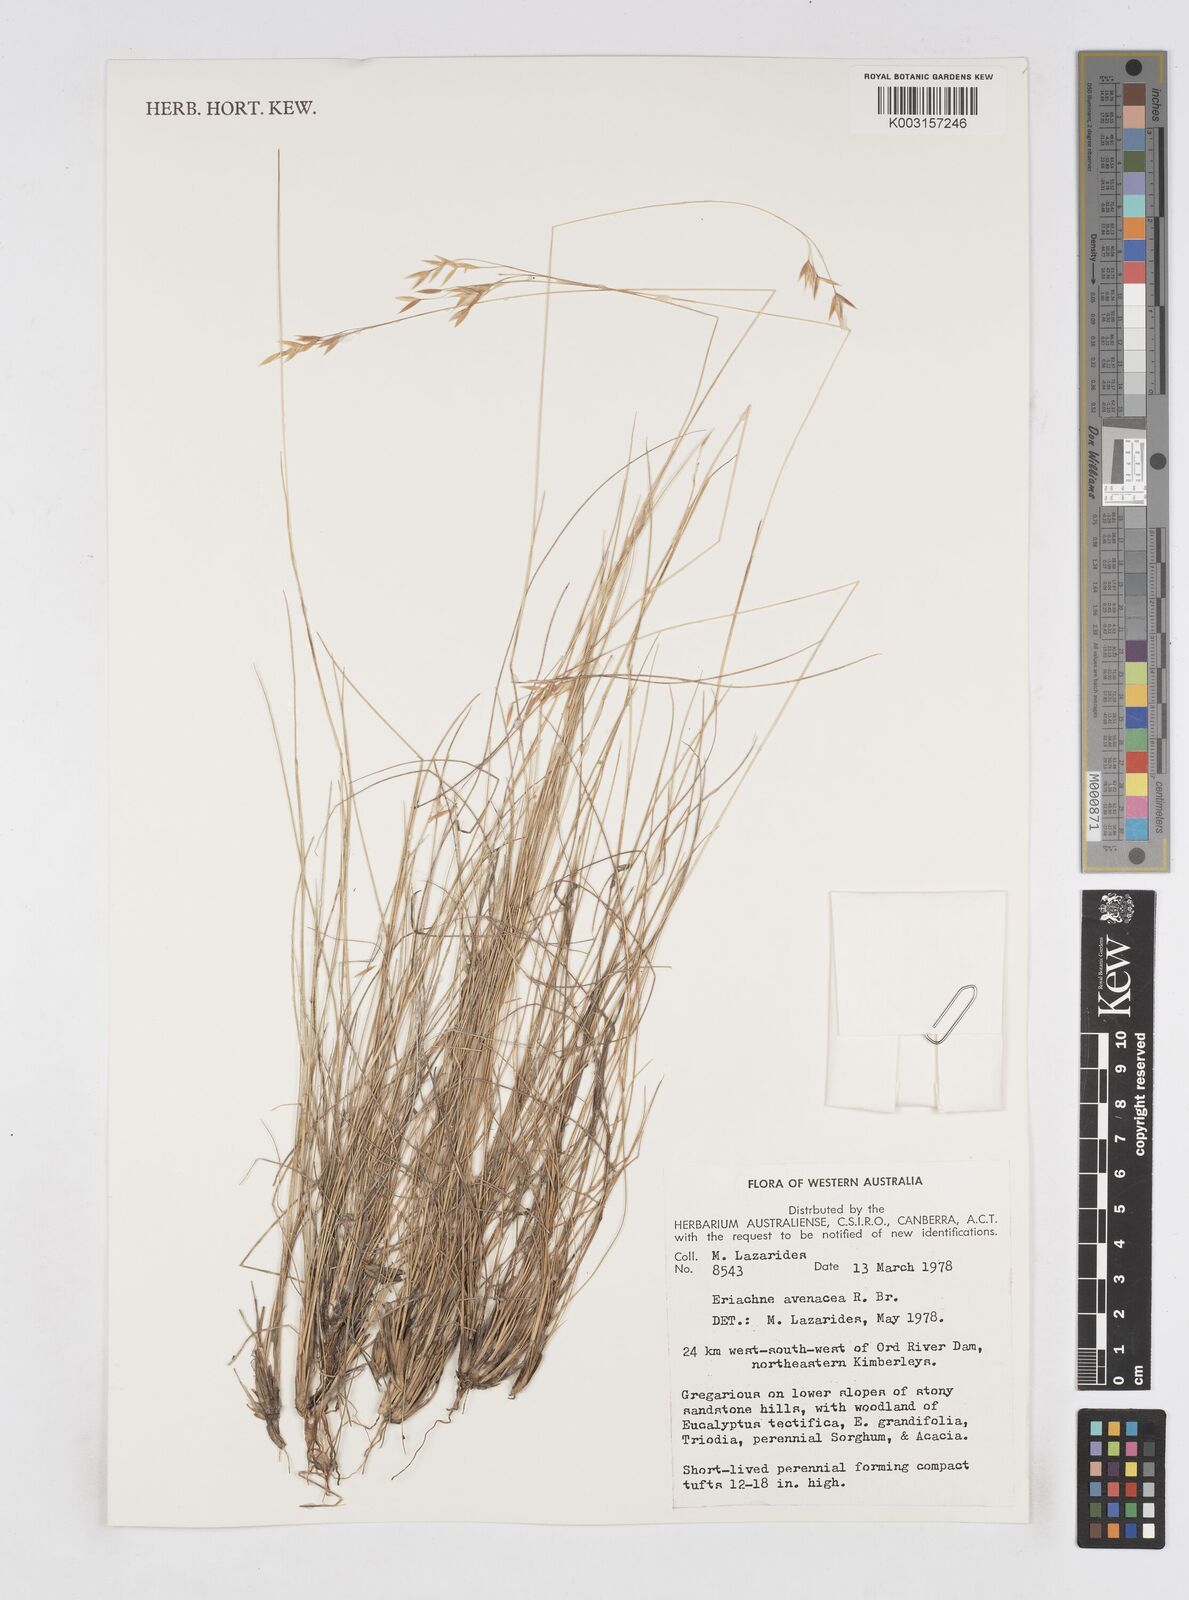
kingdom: Plantae
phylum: Tracheophyta
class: Liliopsida
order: Poales
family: Poaceae
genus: Eriachne
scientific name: Eriachne avenacea
